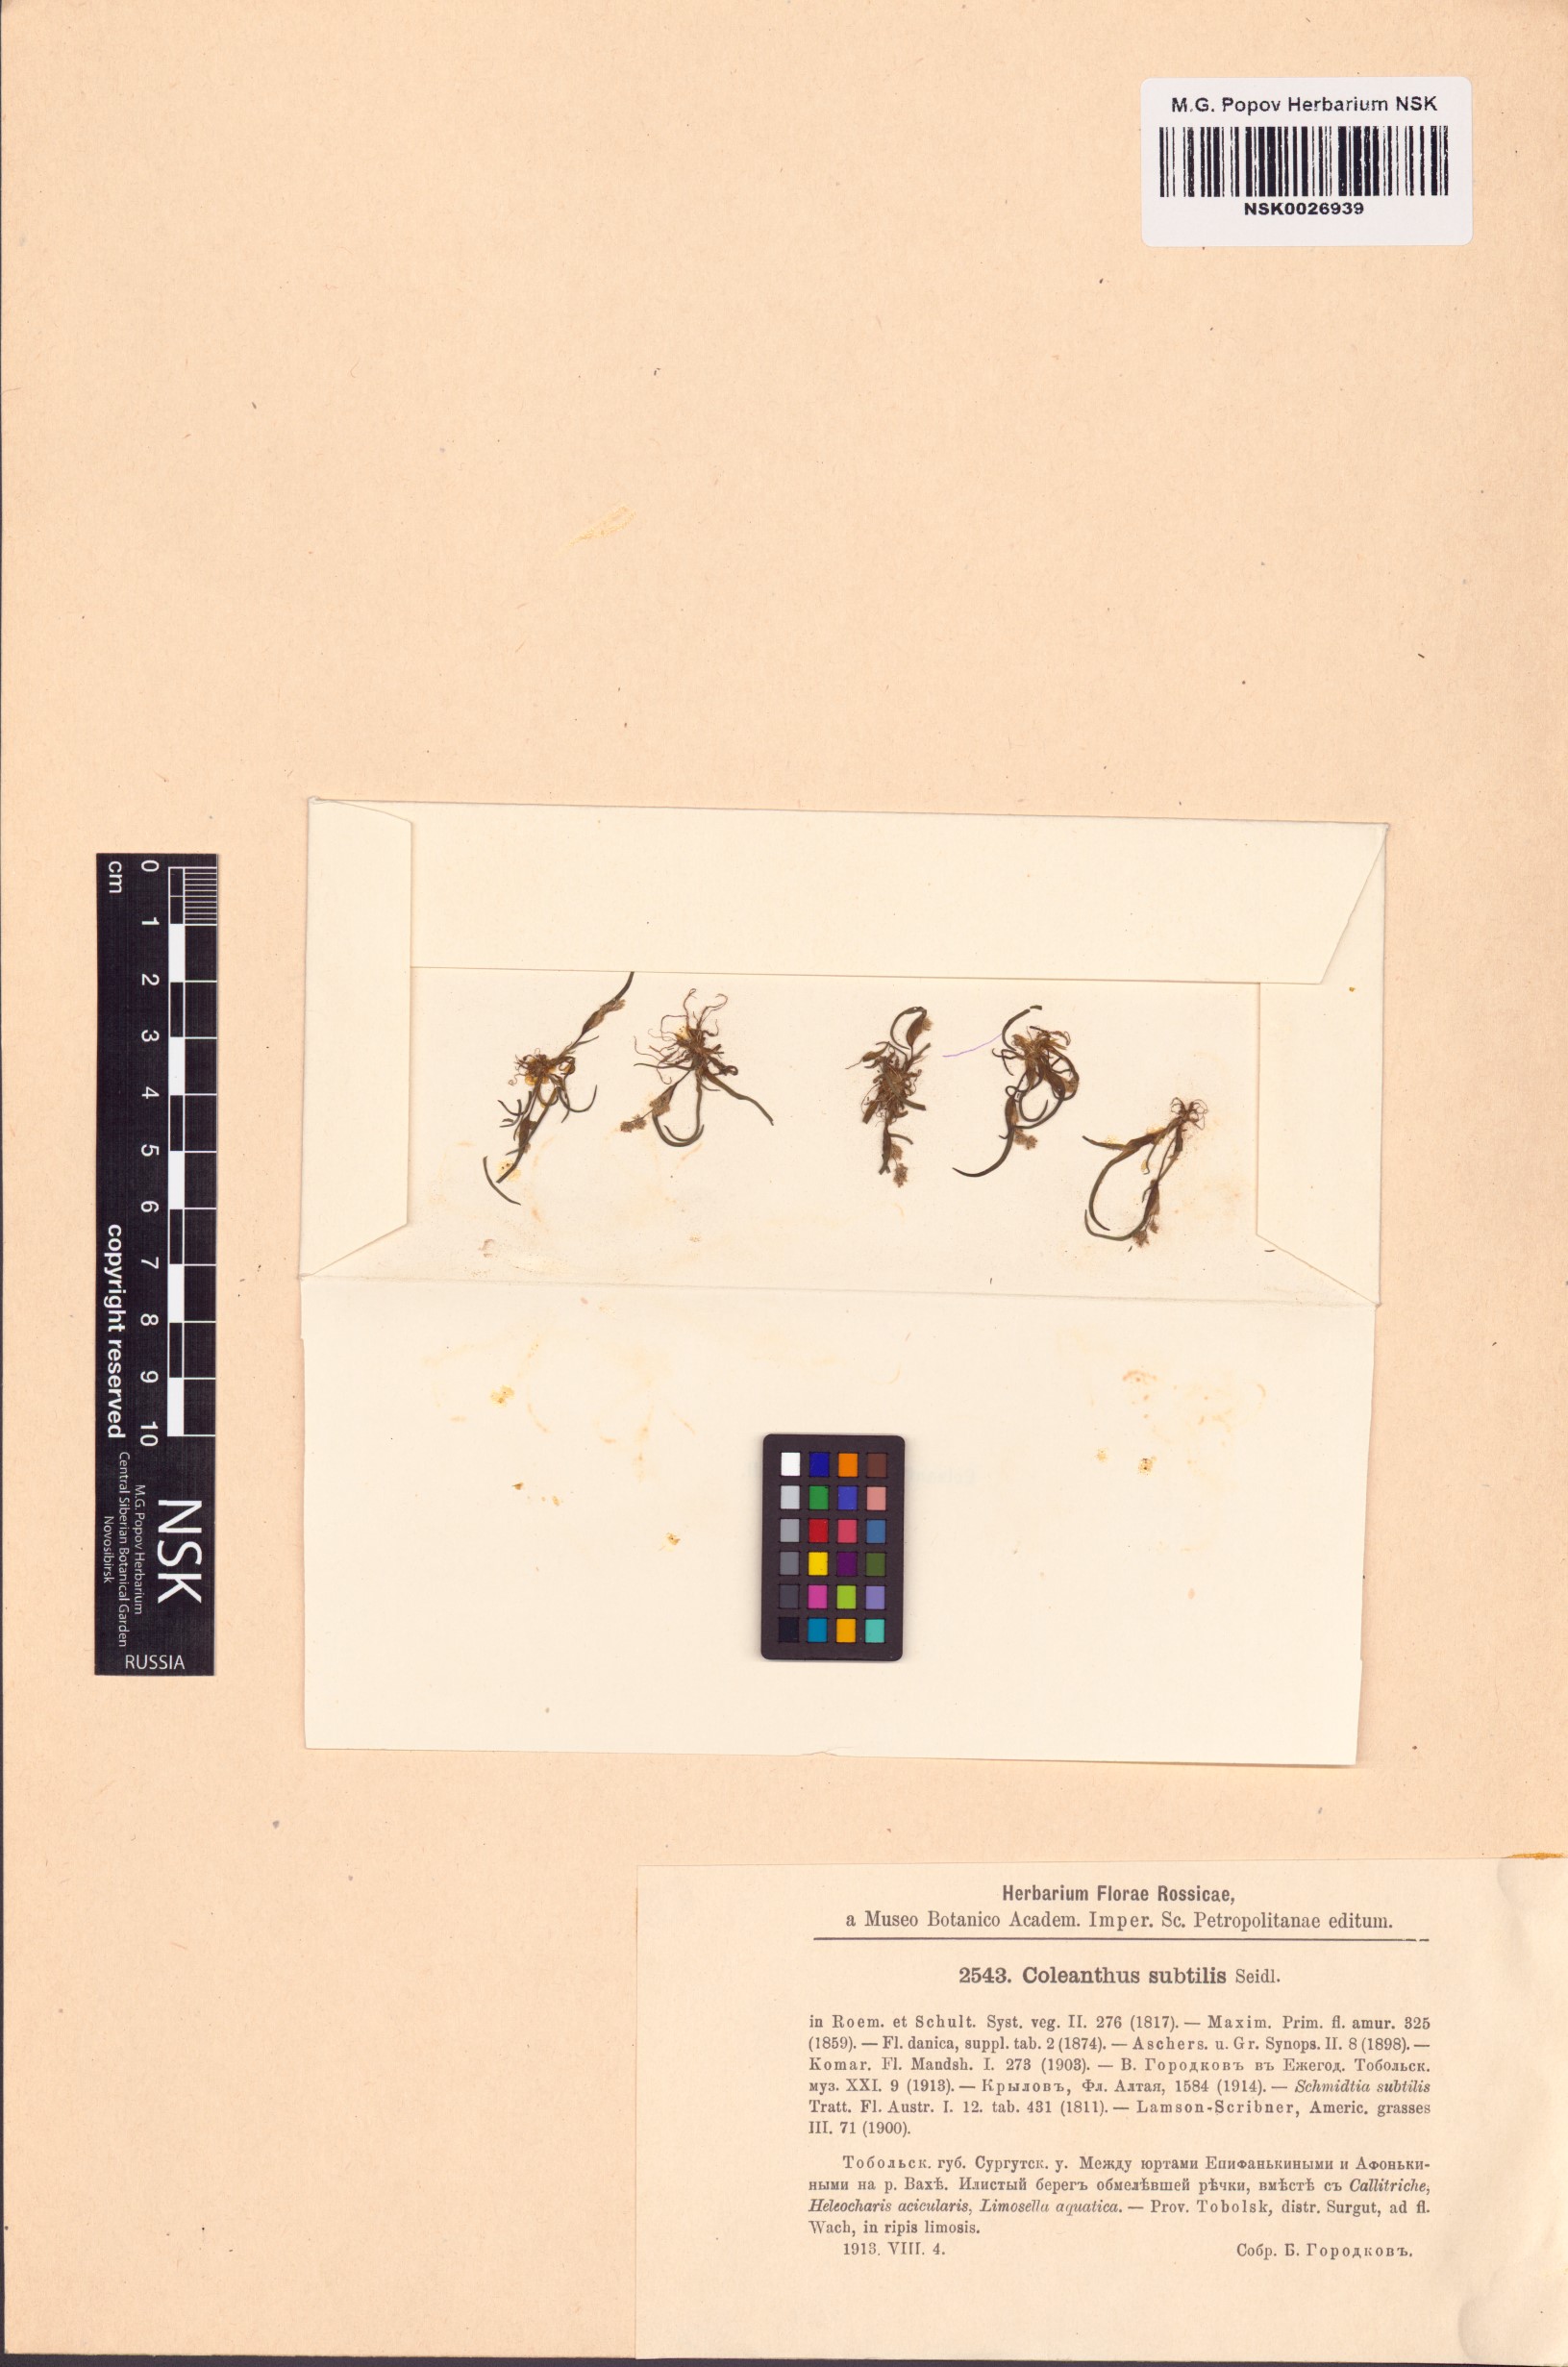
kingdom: Plantae
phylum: Tracheophyta
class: Liliopsida
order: Poales
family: Poaceae
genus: Coleanthus
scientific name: Coleanthus subtilis
